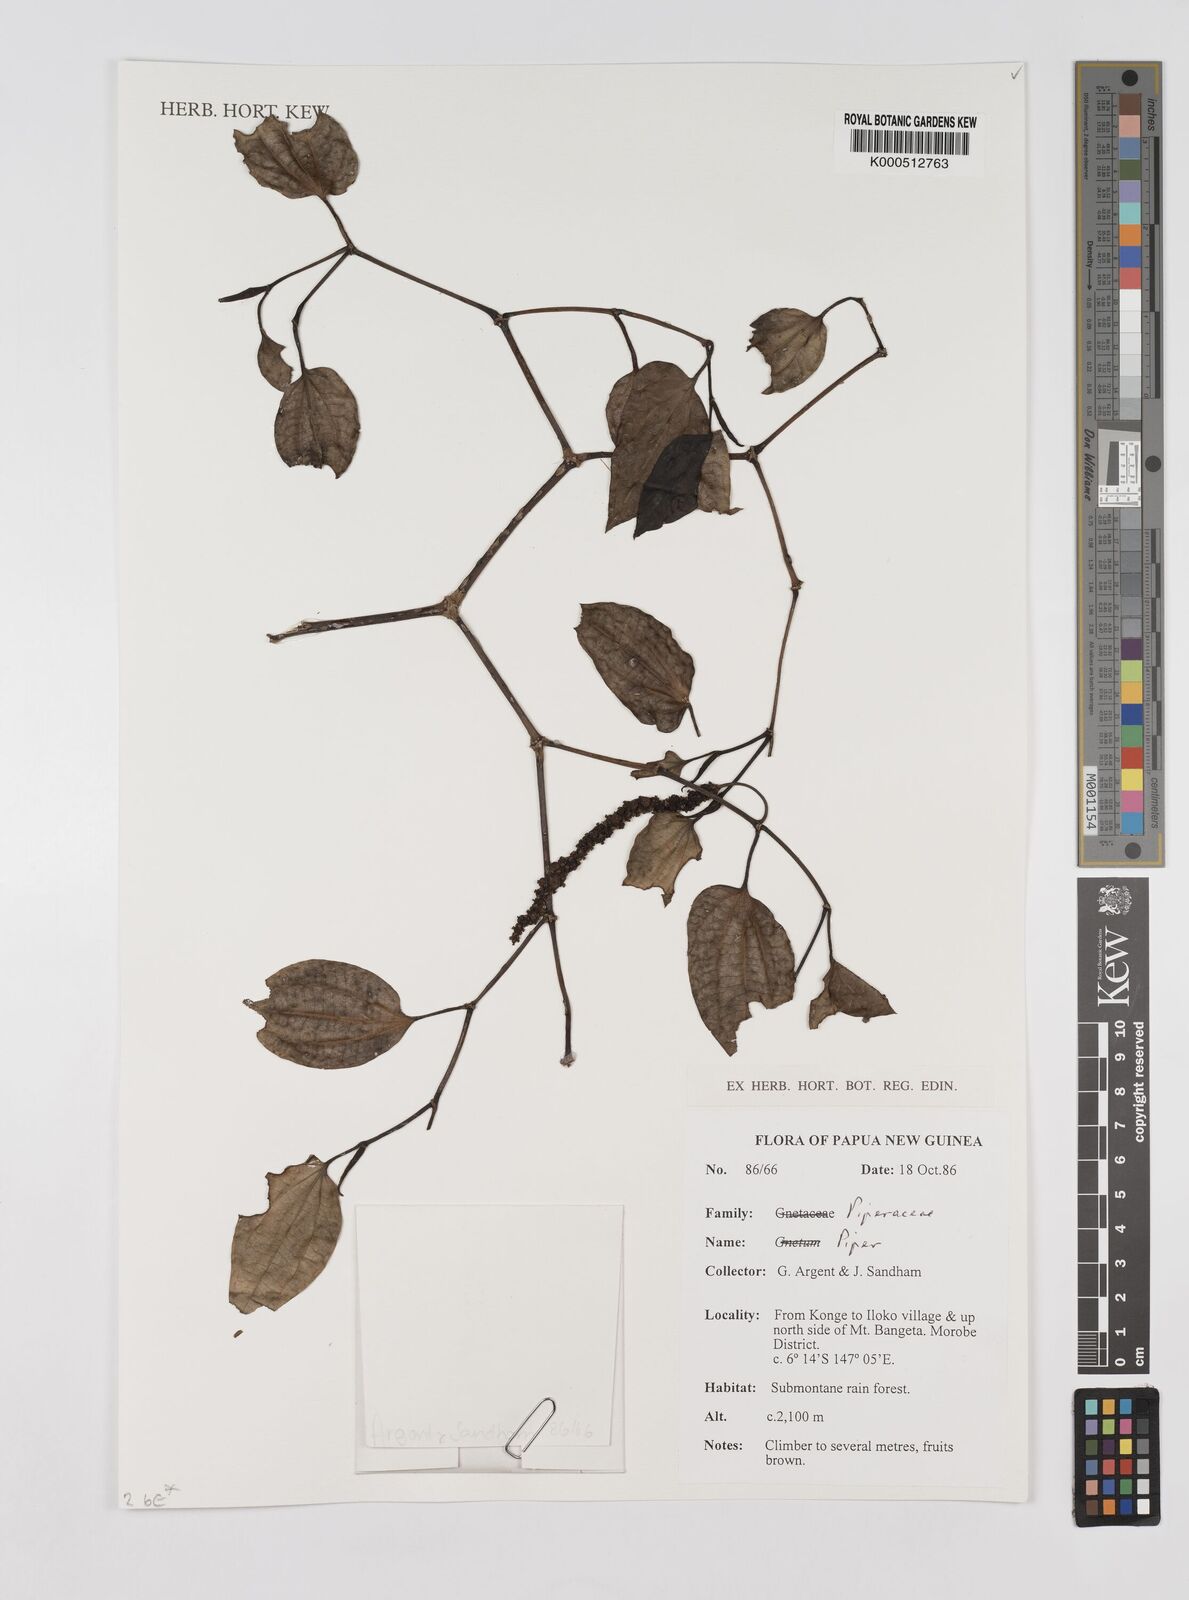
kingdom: Plantae
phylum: Tracheophyta
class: Magnoliopsida
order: Piperales
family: Piperaceae
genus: Piper
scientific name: Piper
